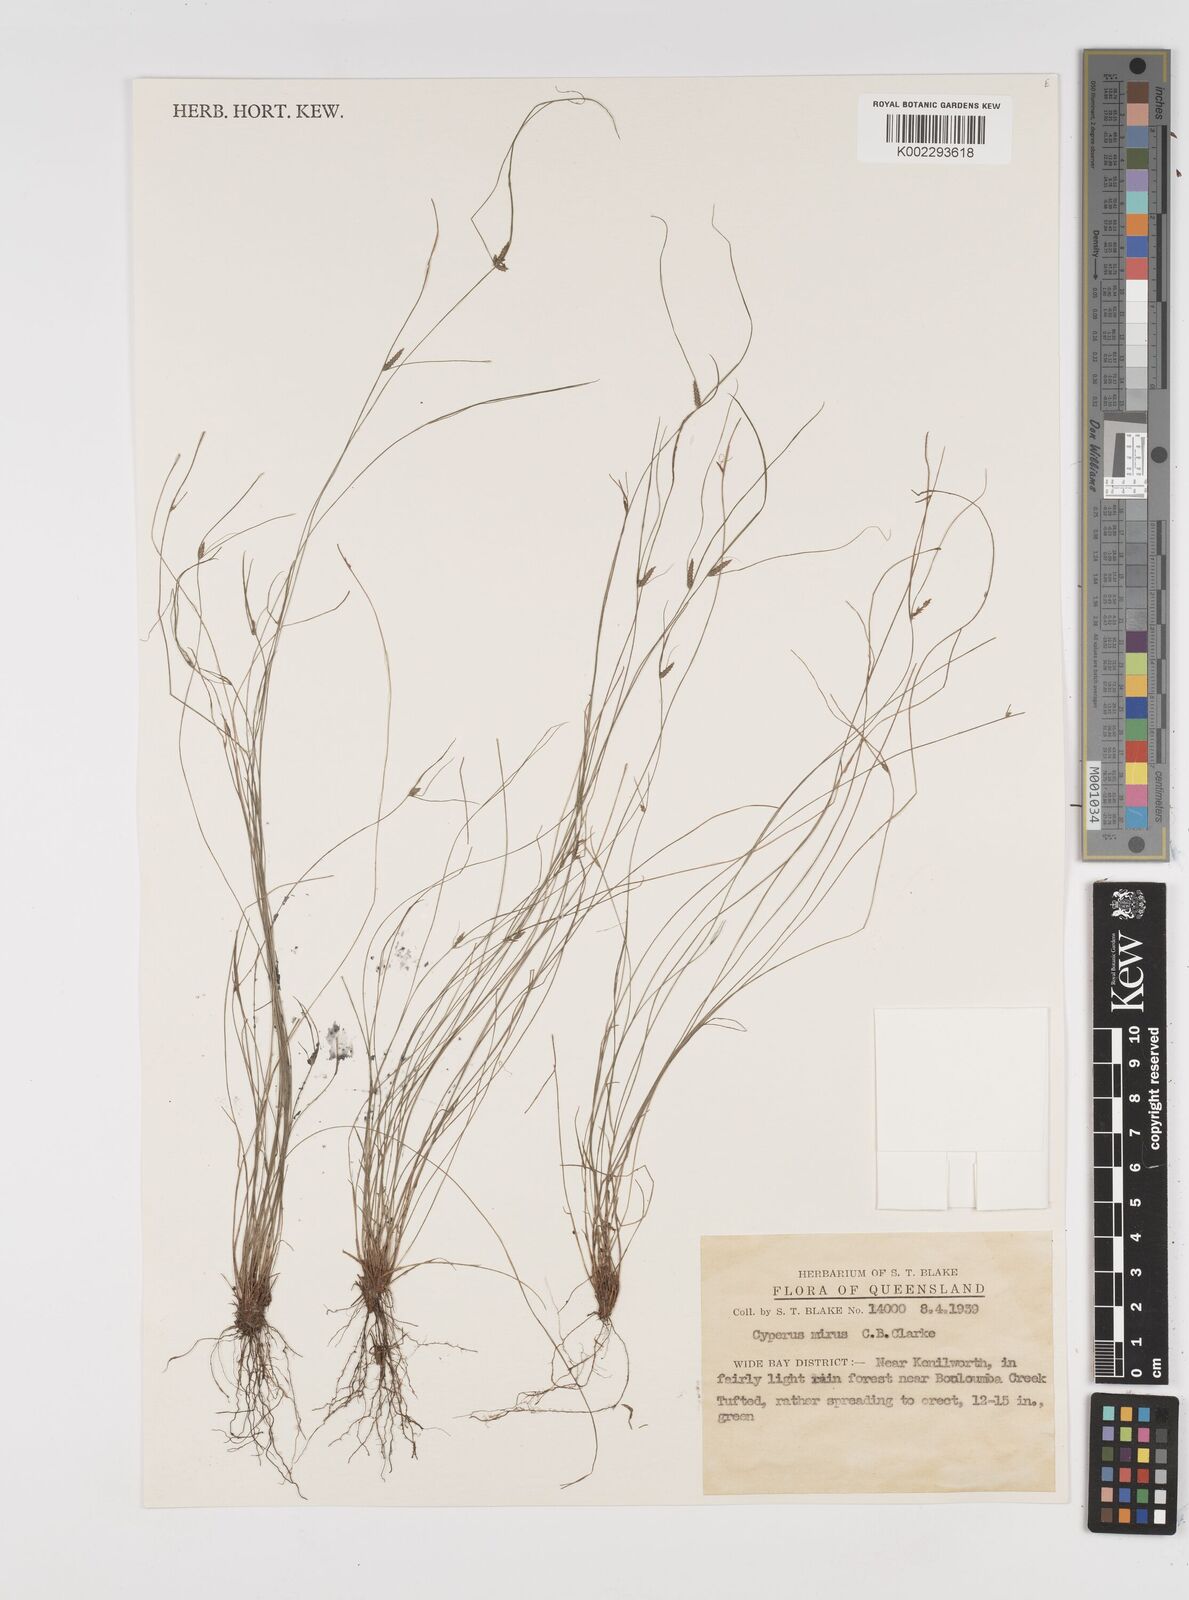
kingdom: Plantae
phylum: Tracheophyta
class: Liliopsida
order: Poales
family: Cyperaceae
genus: Cyperus
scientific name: Cyperus mirus
